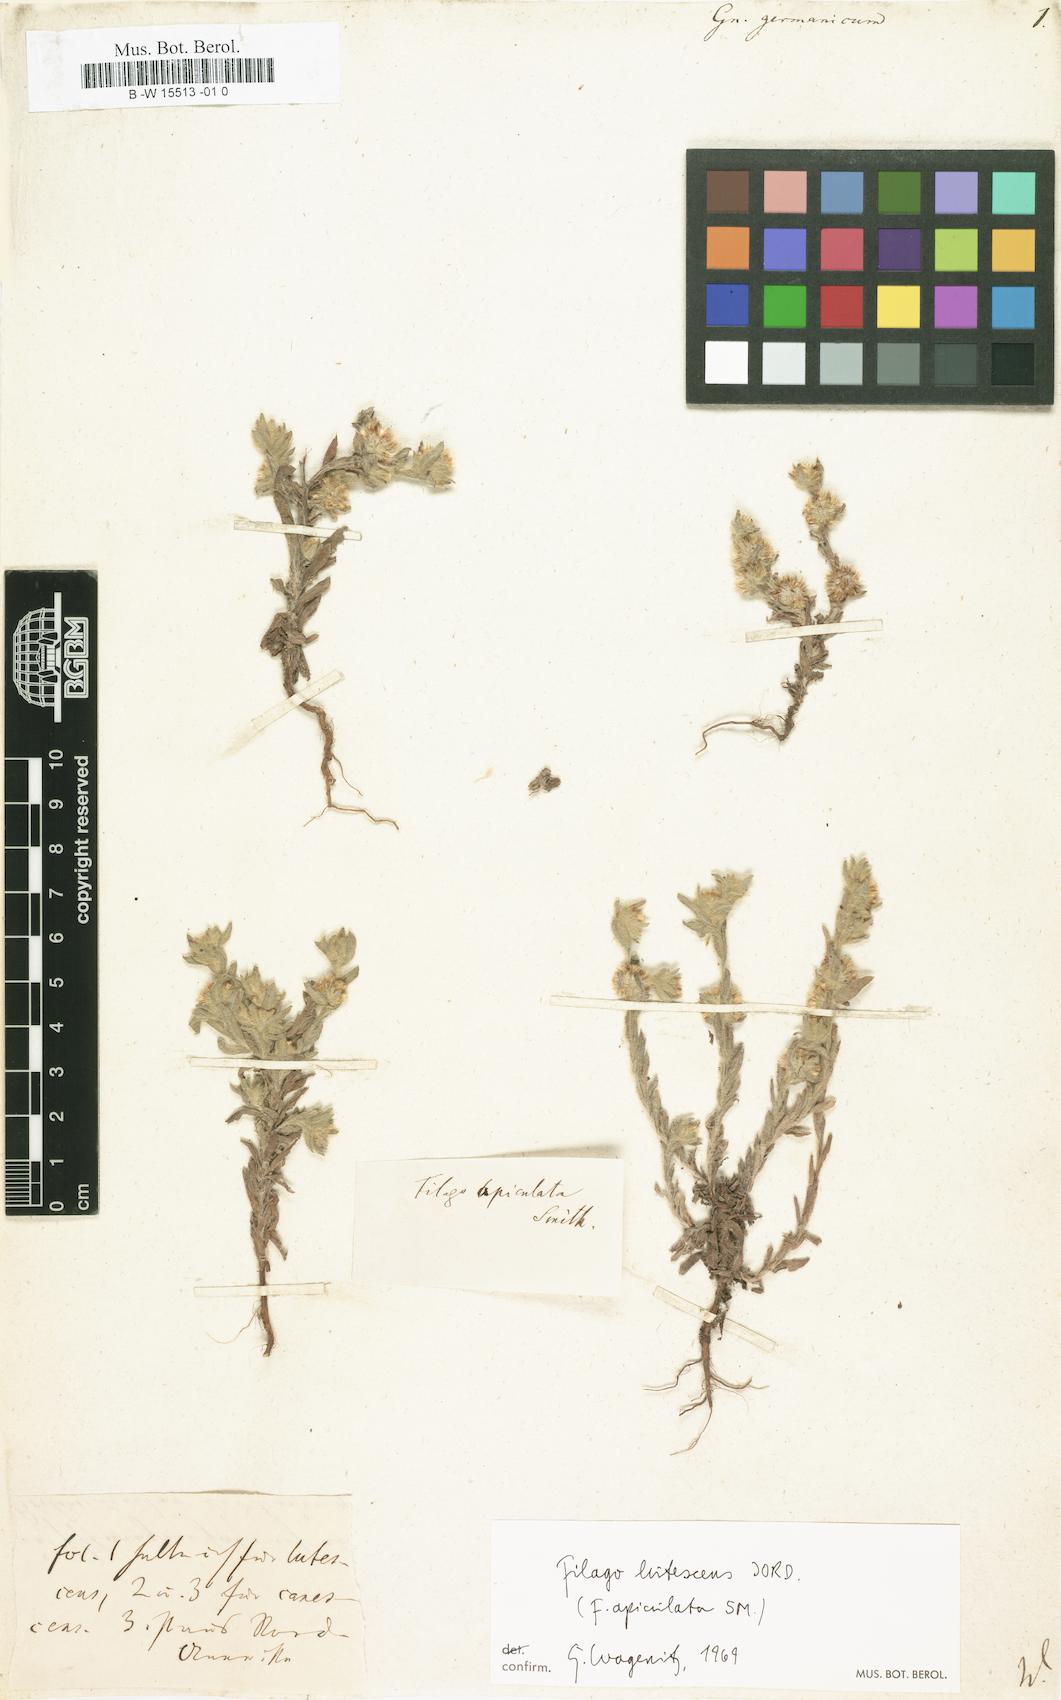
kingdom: Plantae
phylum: Tracheophyta
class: Magnoliopsida
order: Asterales
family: Asteraceae
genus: Filago
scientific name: Filago germanica
